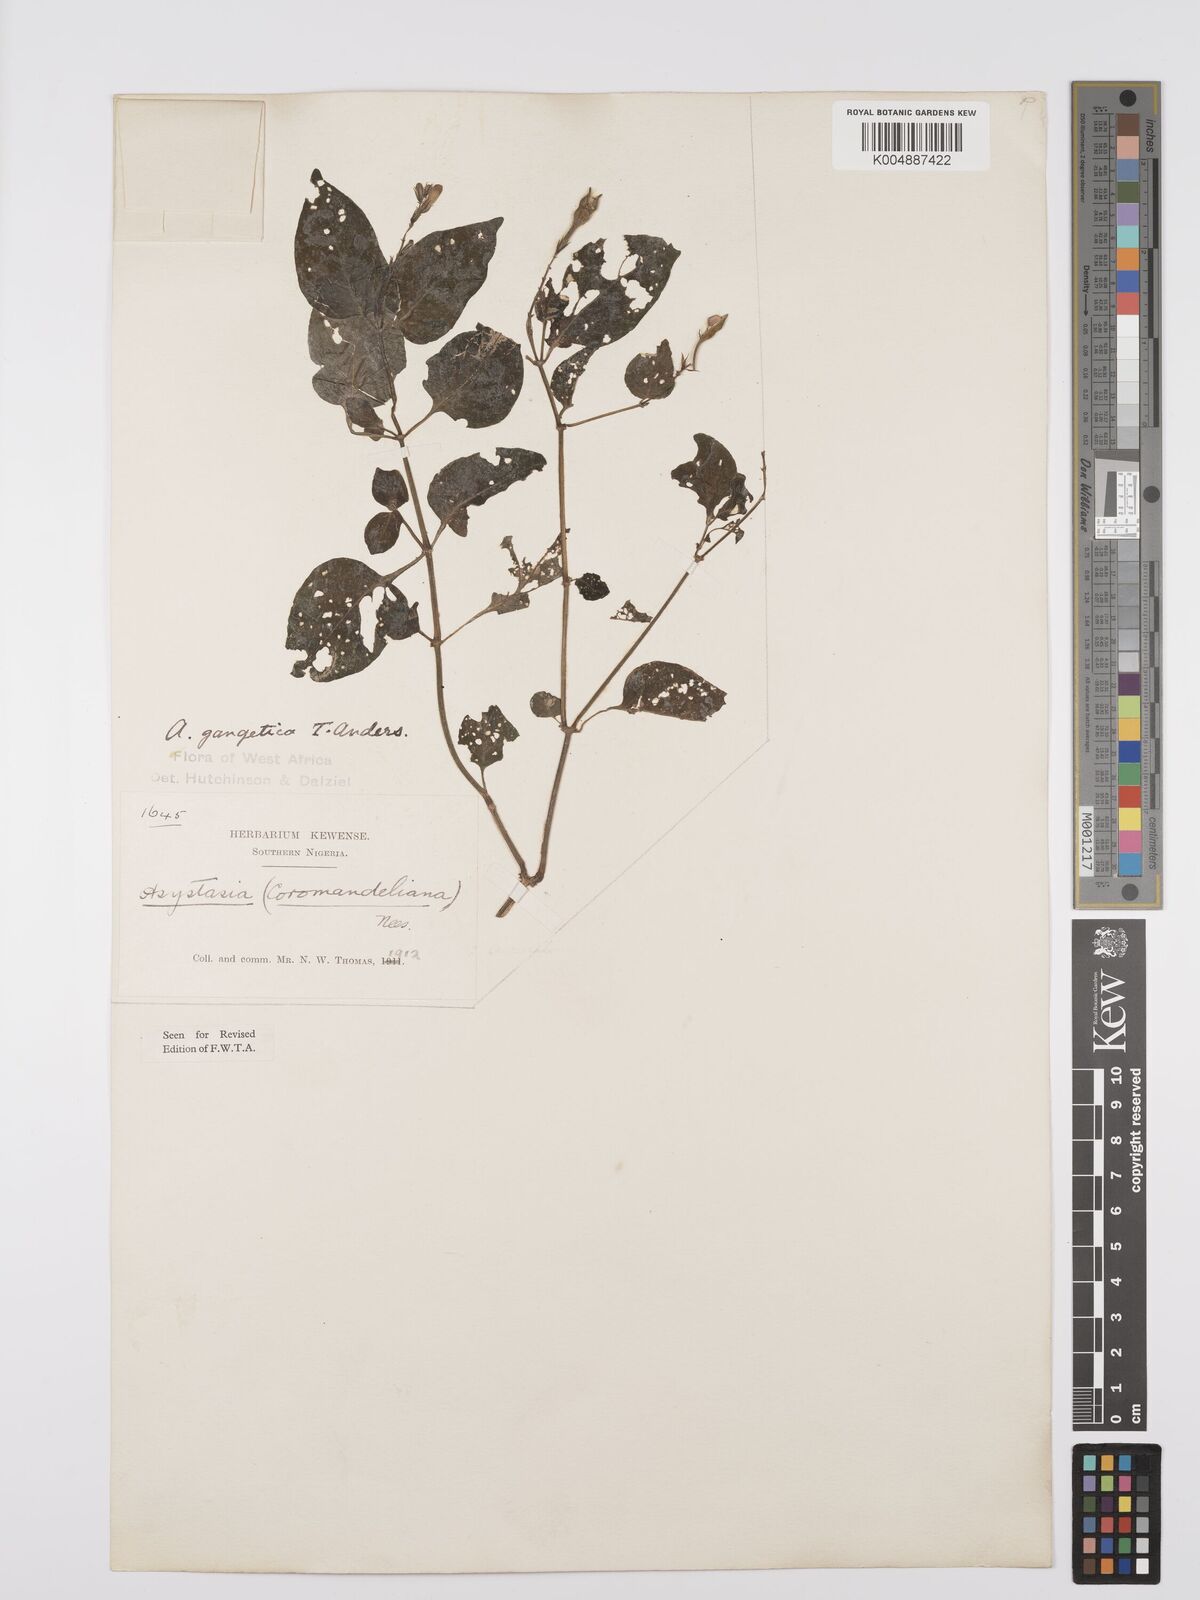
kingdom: Plantae
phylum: Tracheophyta
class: Magnoliopsida
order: Lamiales
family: Acanthaceae
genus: Asystasia
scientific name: Asystasia gangetica
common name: Chinese violet
